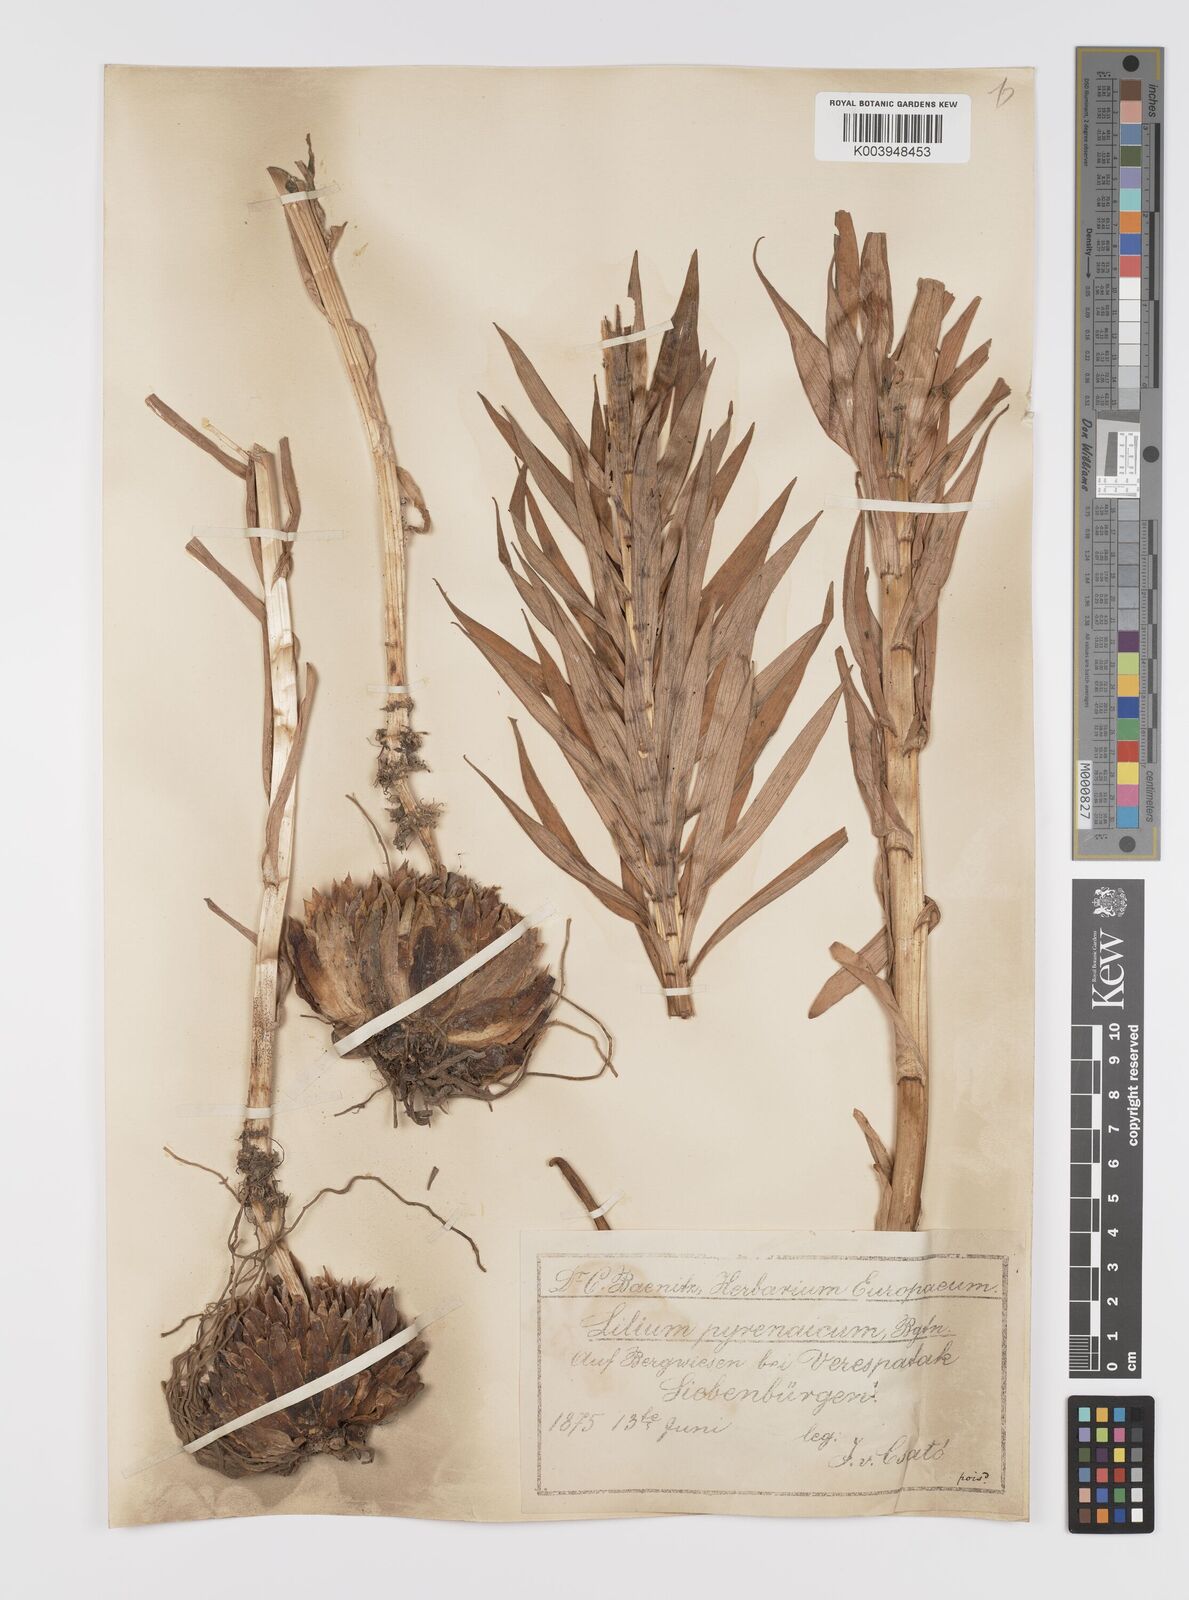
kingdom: Plantae
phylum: Tracheophyta
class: Liliopsida
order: Liliales
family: Liliaceae
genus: Lilium
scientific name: Lilium jankae
